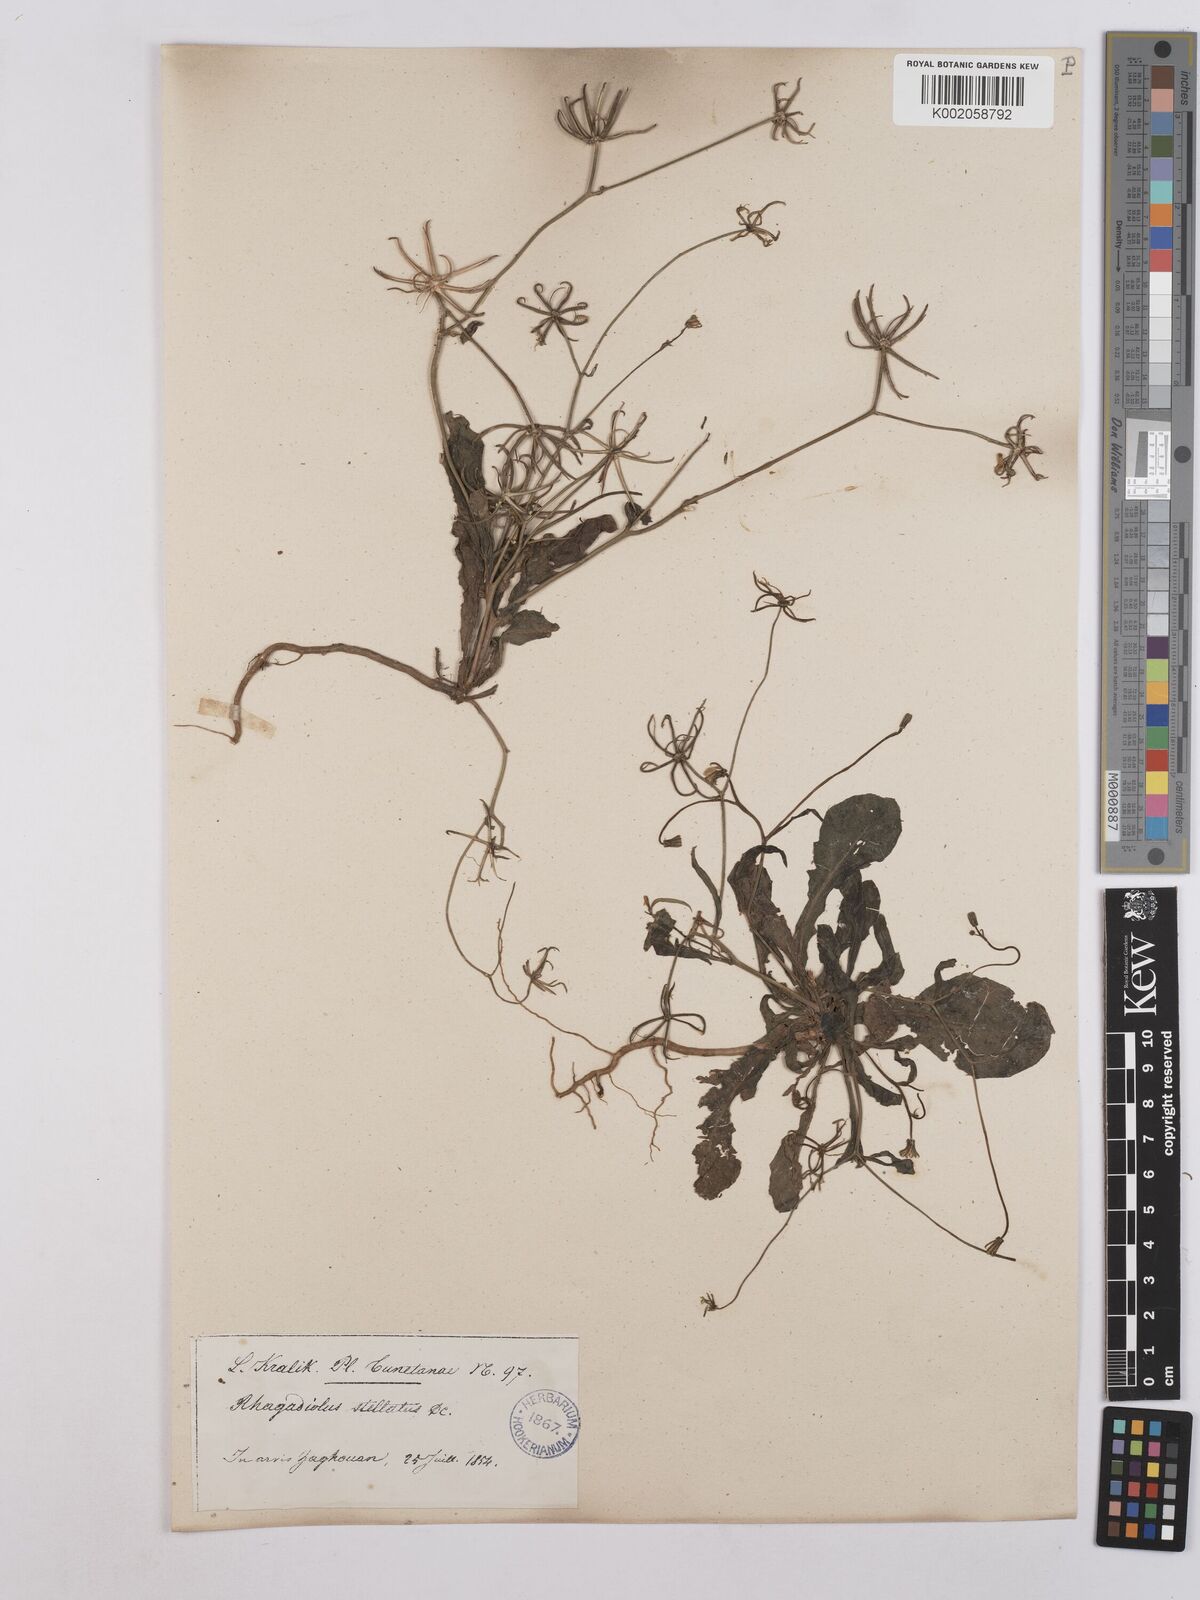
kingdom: Plantae
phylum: Tracheophyta
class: Magnoliopsida
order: Asterales
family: Asteraceae
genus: Hyoseris
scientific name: Hyoseris radiata
